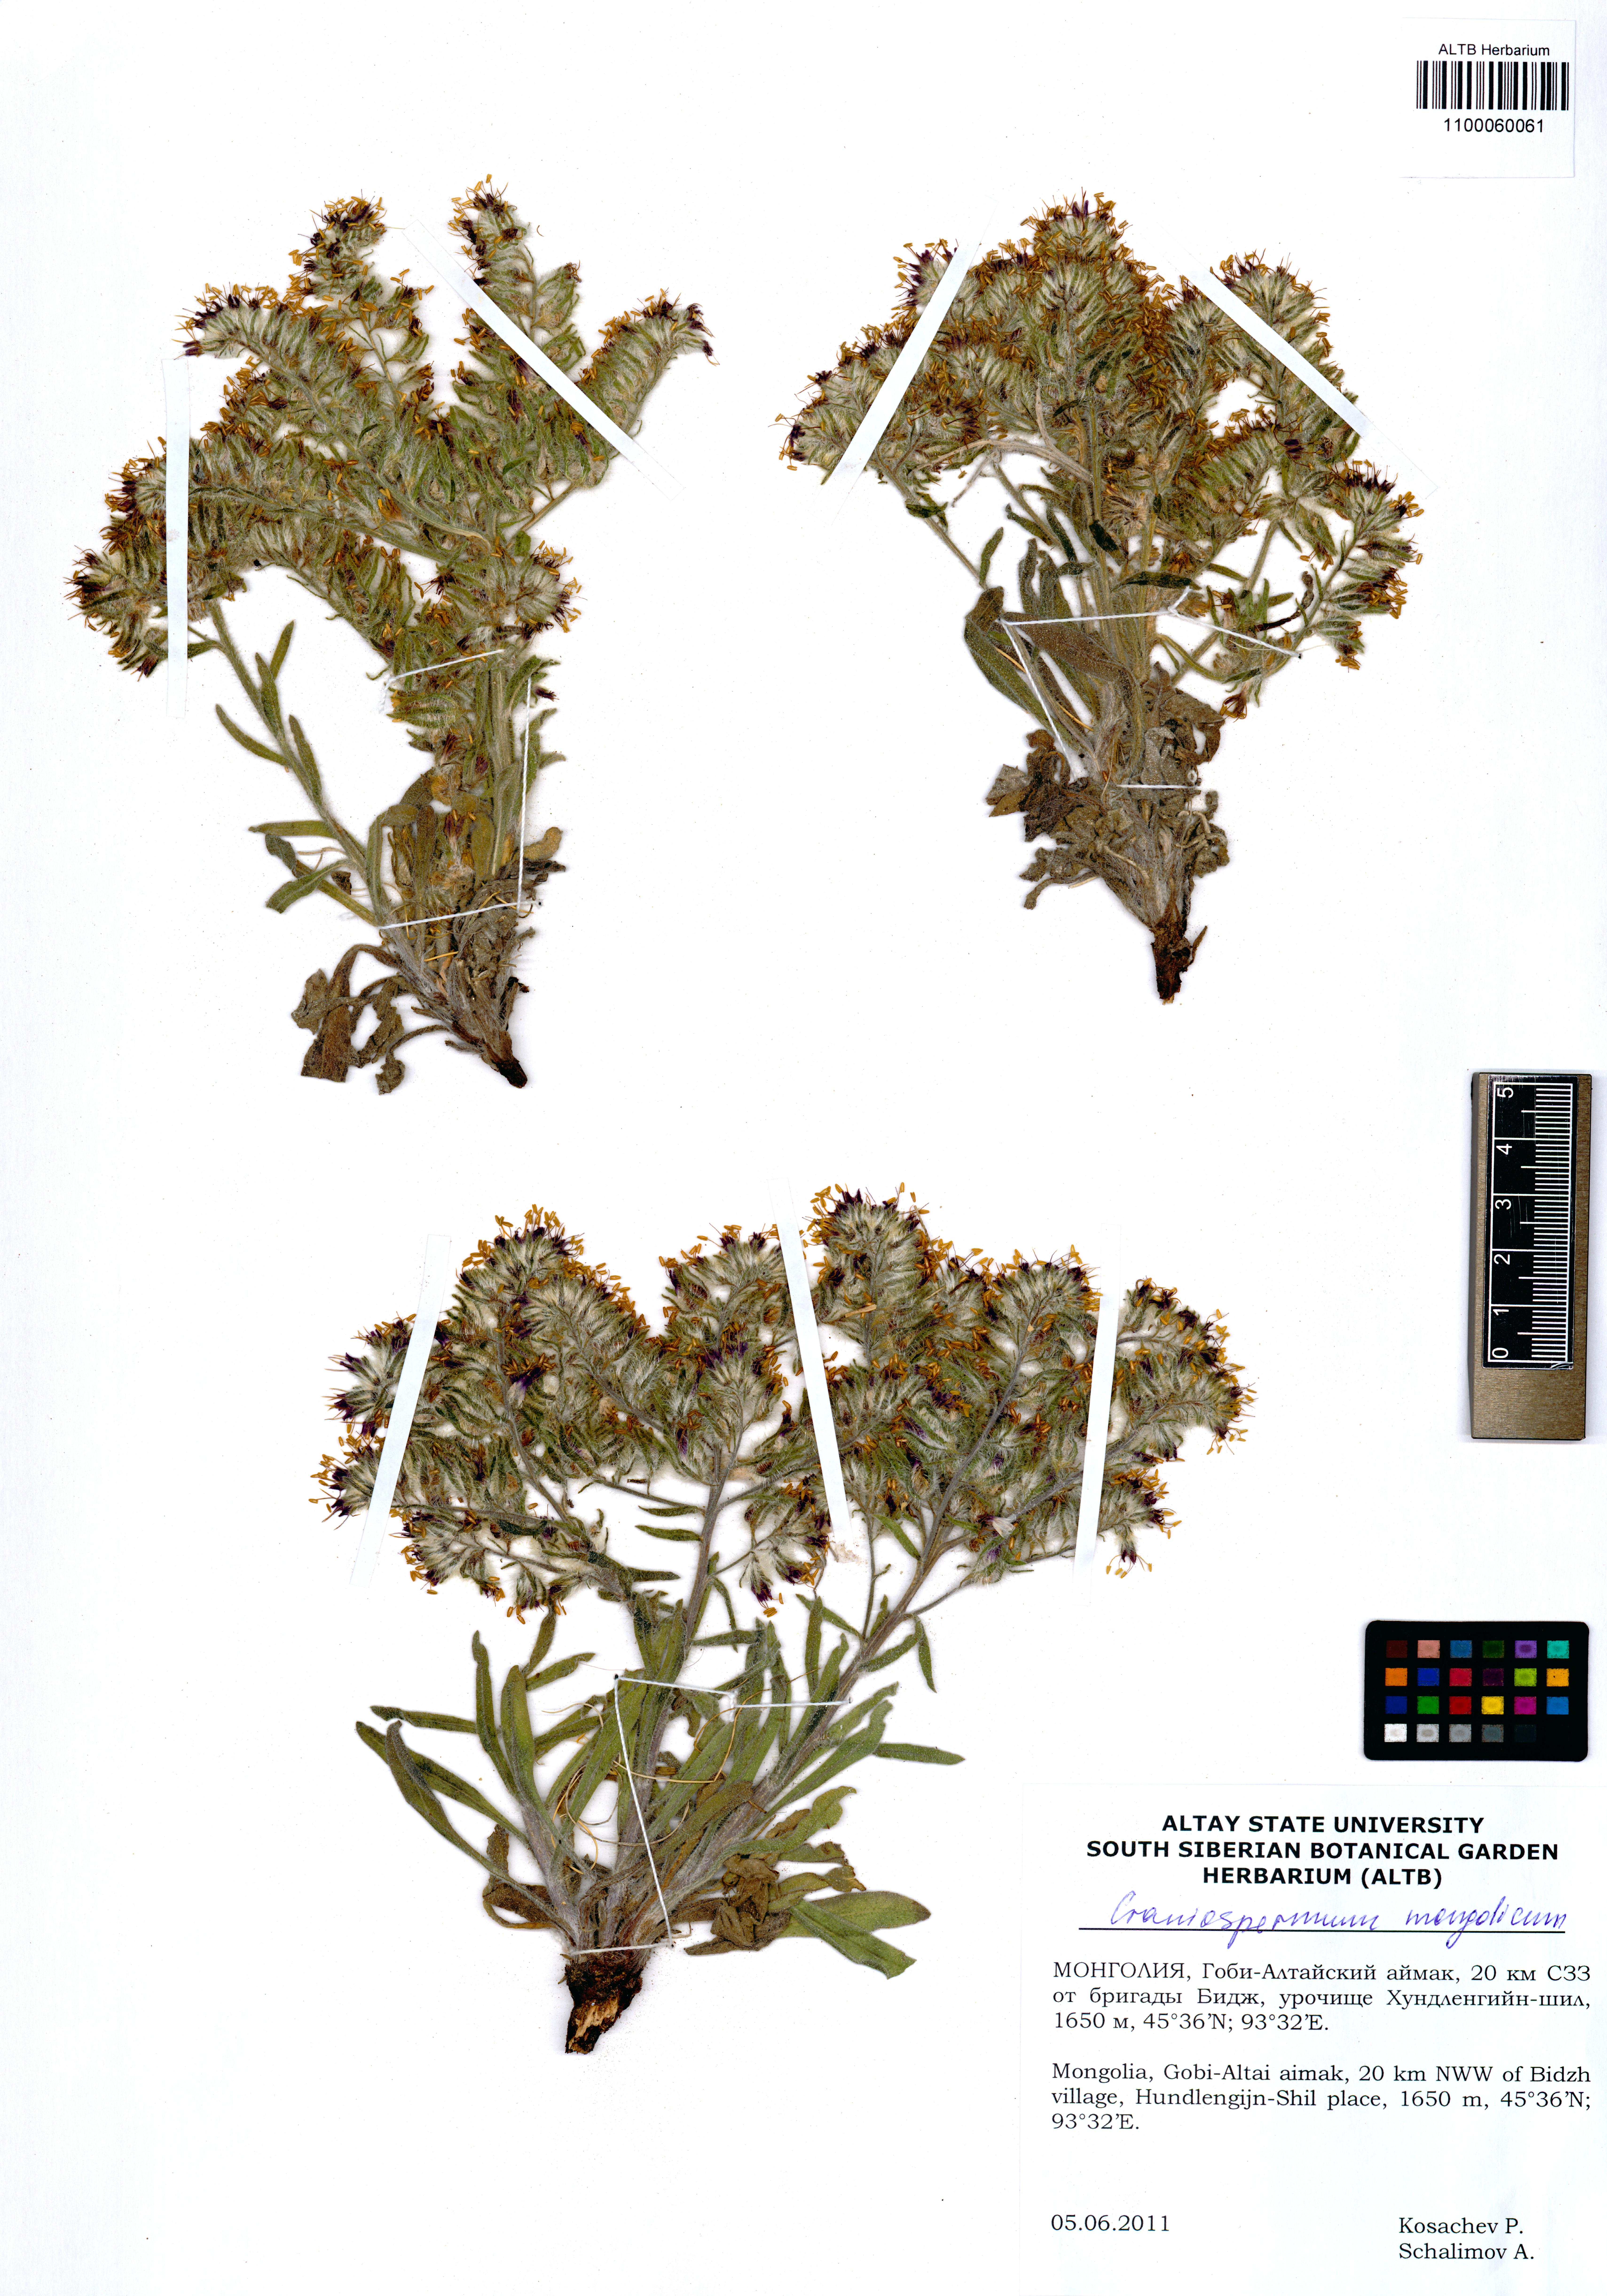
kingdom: Plantae
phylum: Tracheophyta
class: Magnoliopsida
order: Boraginales
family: Boraginaceae
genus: Craniospermum
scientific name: Craniospermum mongolicum
